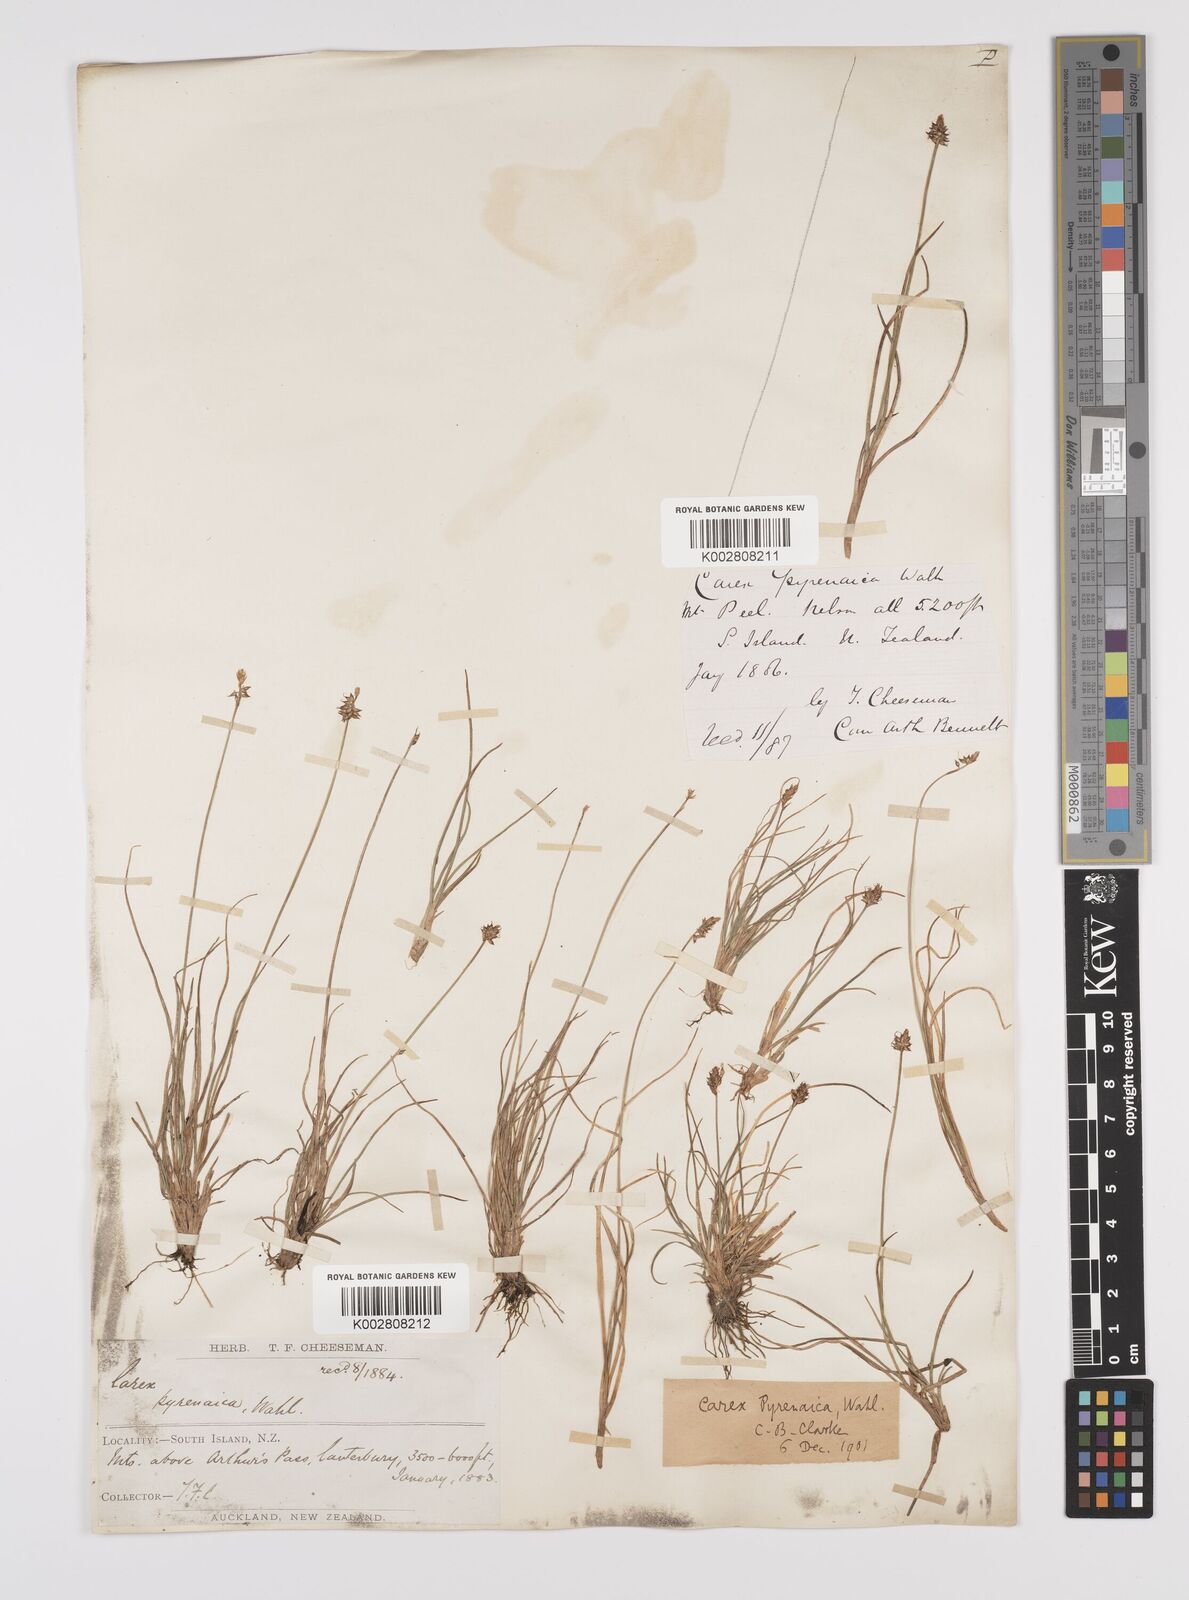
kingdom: Plantae
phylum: Tracheophyta
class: Liliopsida
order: Poales
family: Cyperaceae
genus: Carex
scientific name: Carex pyrenaica
